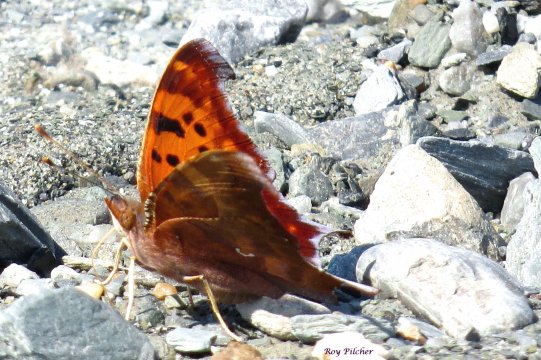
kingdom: Animalia
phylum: Arthropoda
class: Insecta
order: Lepidoptera
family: Nymphalidae
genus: Polygonia
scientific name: Polygonia interrogationis
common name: Question Mark
